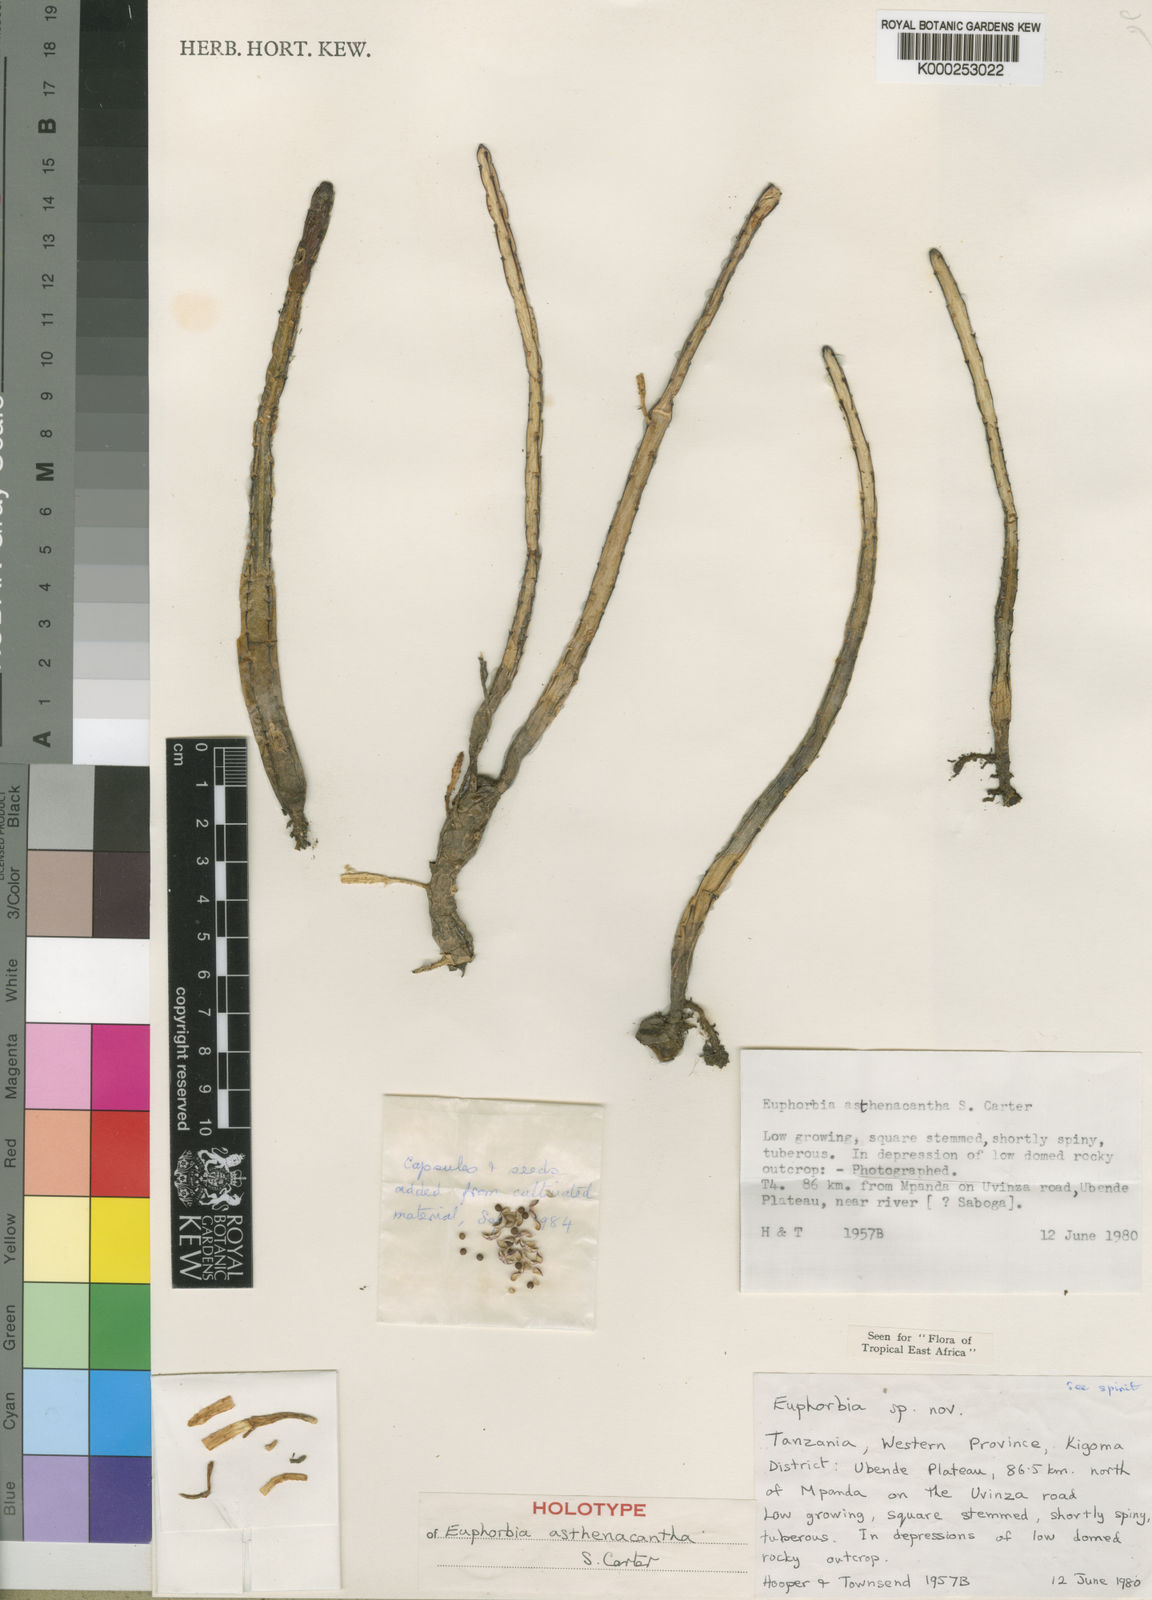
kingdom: Plantae
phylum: Tracheophyta
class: Magnoliopsida
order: Malpighiales
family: Euphorbiaceae
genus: Euphorbia
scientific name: Euphorbia asthenacantha
